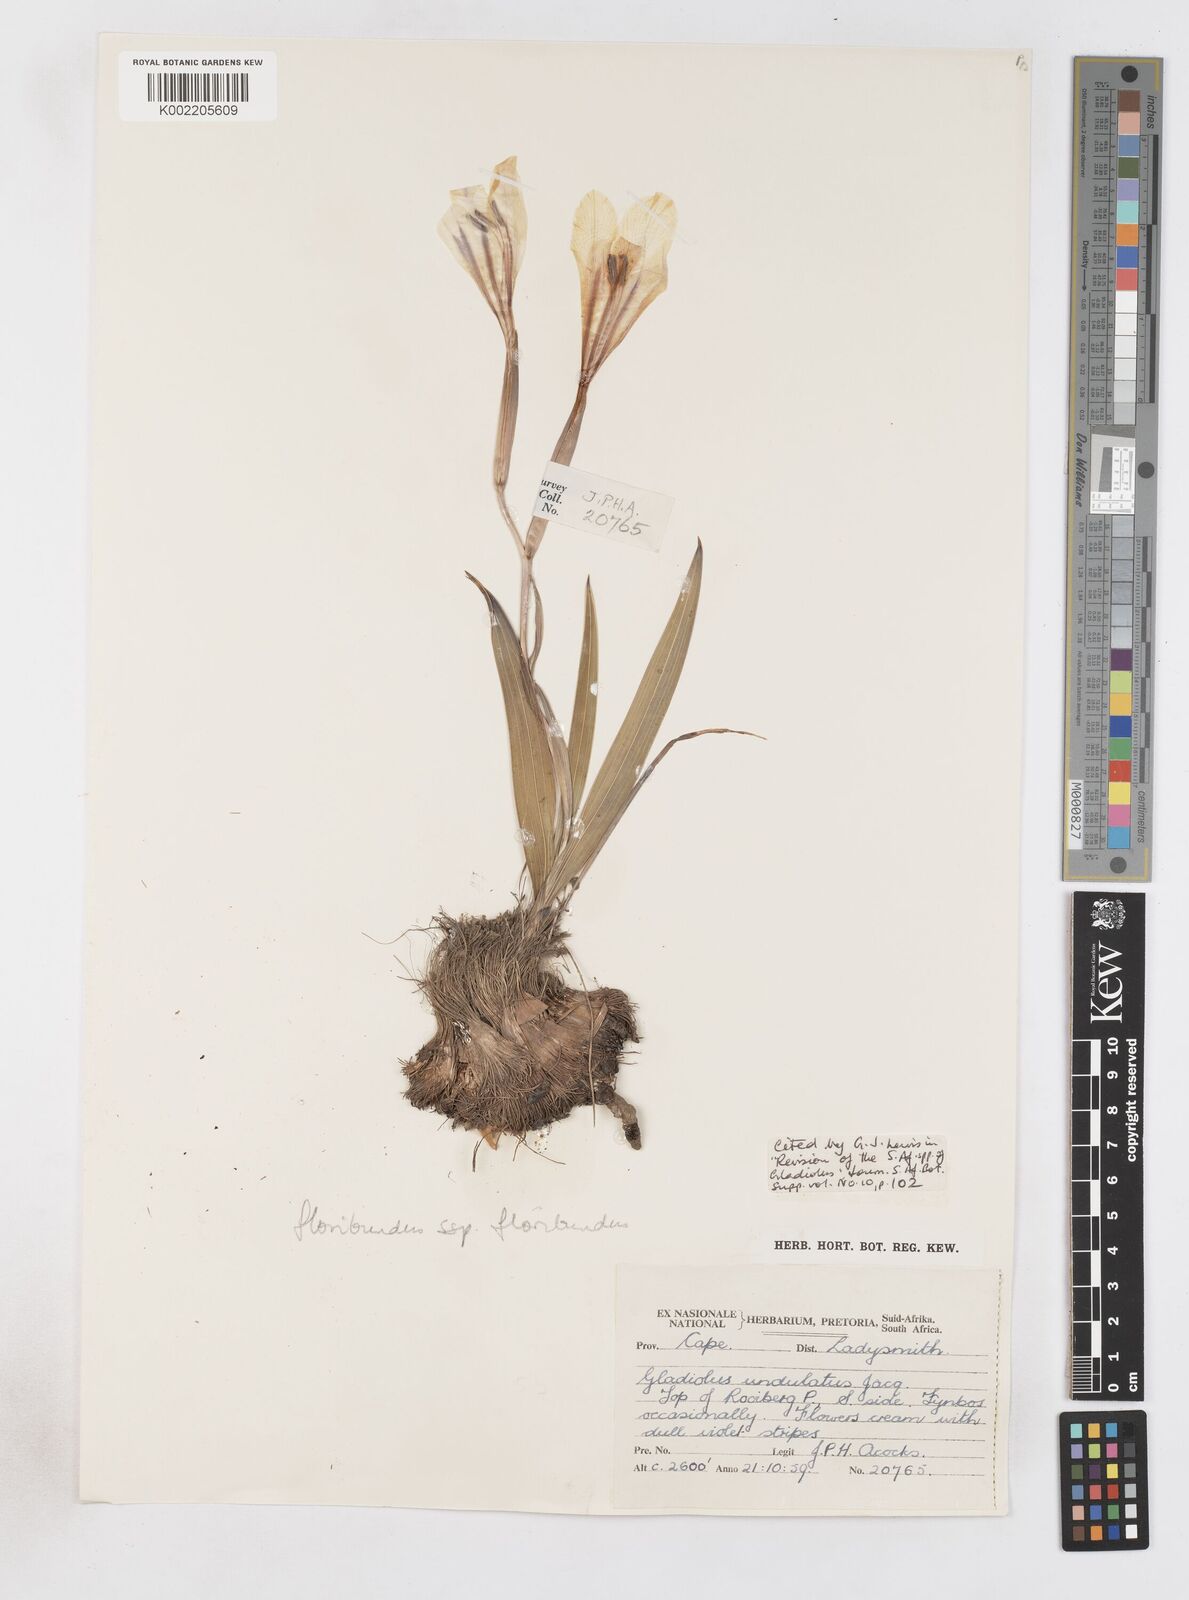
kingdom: Plantae
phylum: Tracheophyta
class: Liliopsida
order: Asparagales
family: Iridaceae
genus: Gladiolus
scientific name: Gladiolus floribundus
